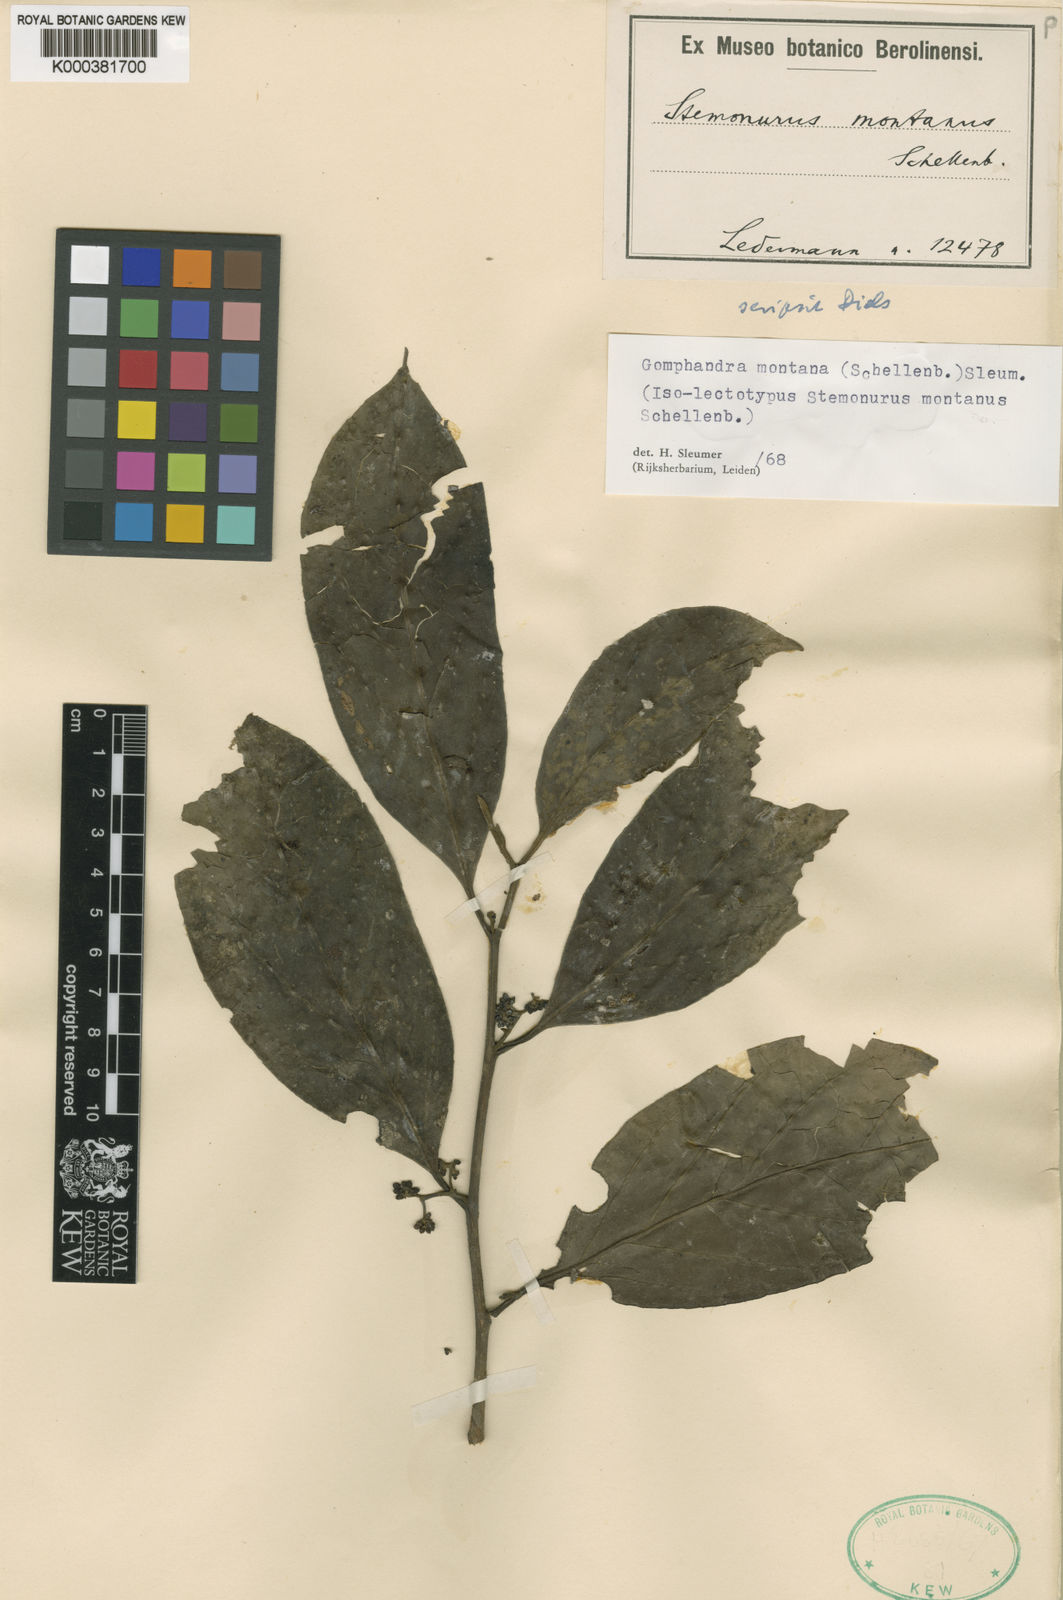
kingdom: Plantae
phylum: Tracheophyta
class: Magnoliopsida
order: Cardiopteridales
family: Stemonuraceae
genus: Gomphandra
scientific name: Gomphandra montana
